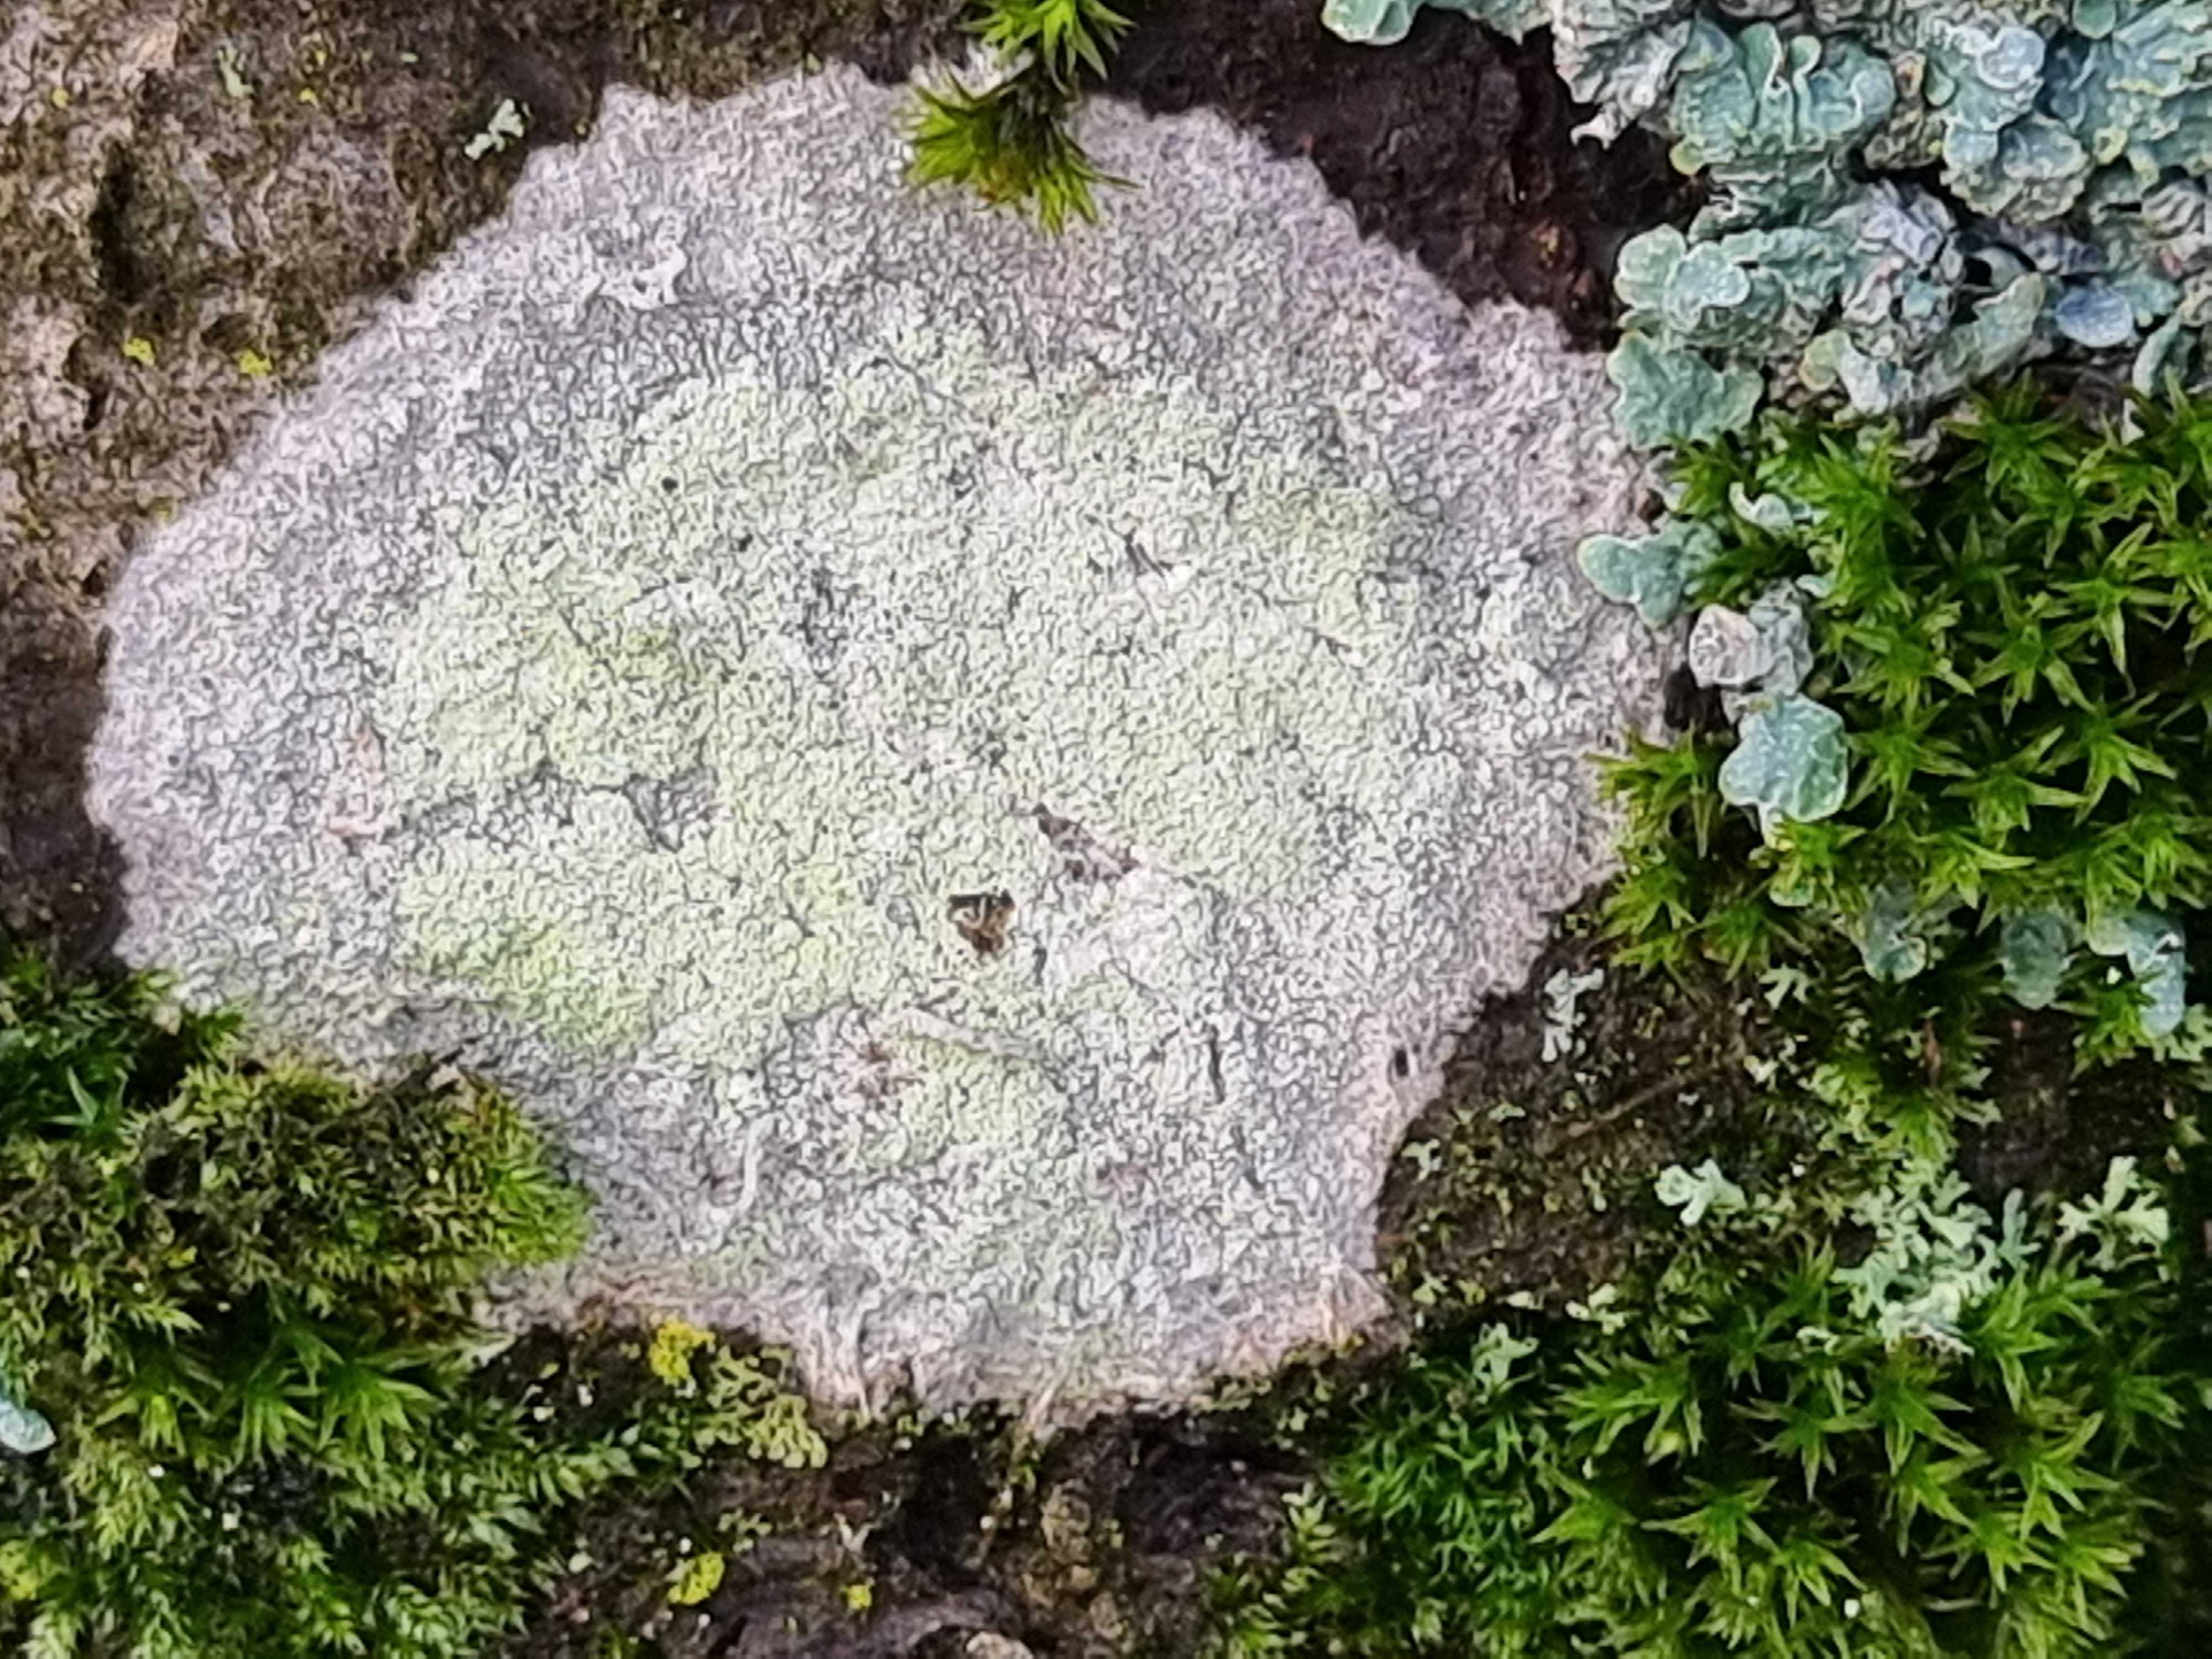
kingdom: Fungi
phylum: Ascomycota
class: Lecanoromycetes
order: Ostropales
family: Phlyctidaceae
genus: Phlyctis
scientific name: Phlyctis argena
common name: almindelig sølvlav
